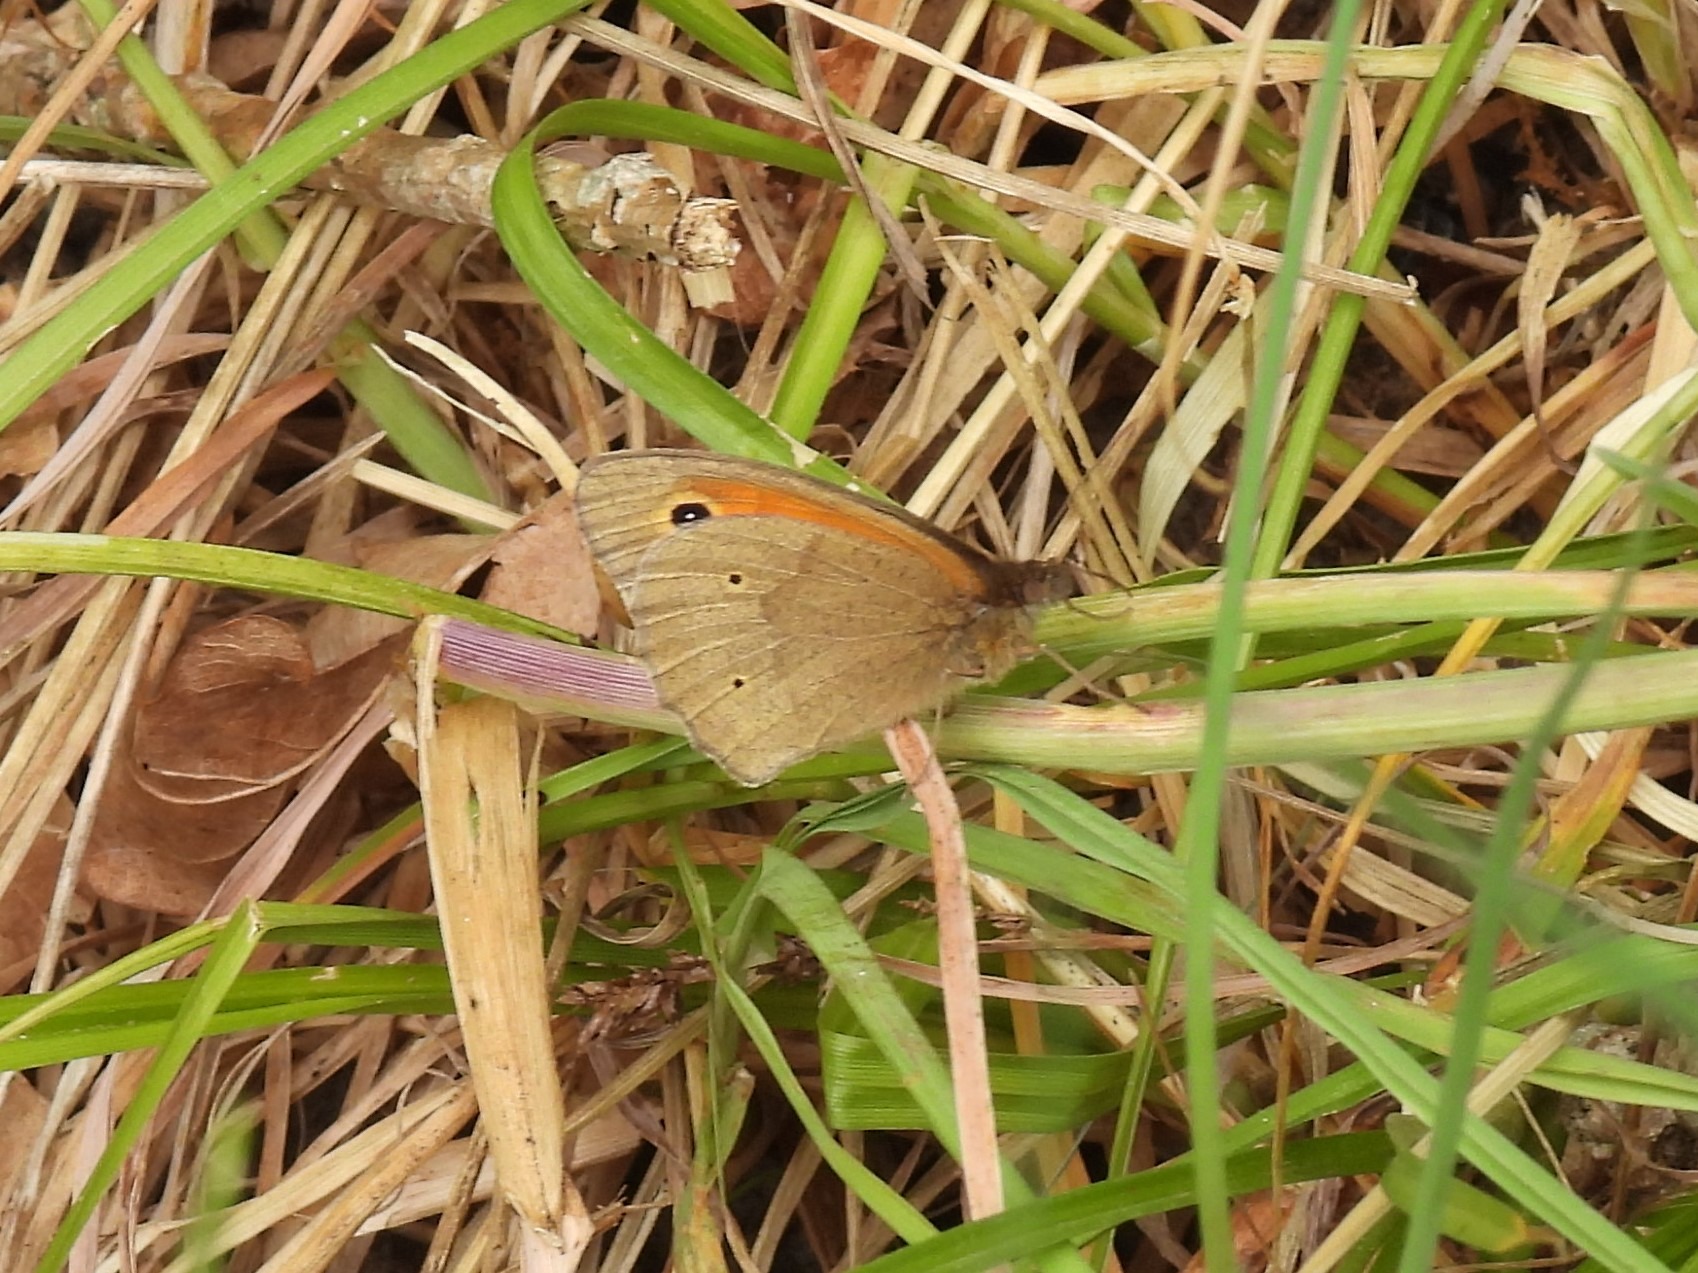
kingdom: Animalia
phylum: Arthropoda
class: Insecta
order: Lepidoptera
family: Nymphalidae
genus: Maniola
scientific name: Maniola jurtina
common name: Græsrandøje
